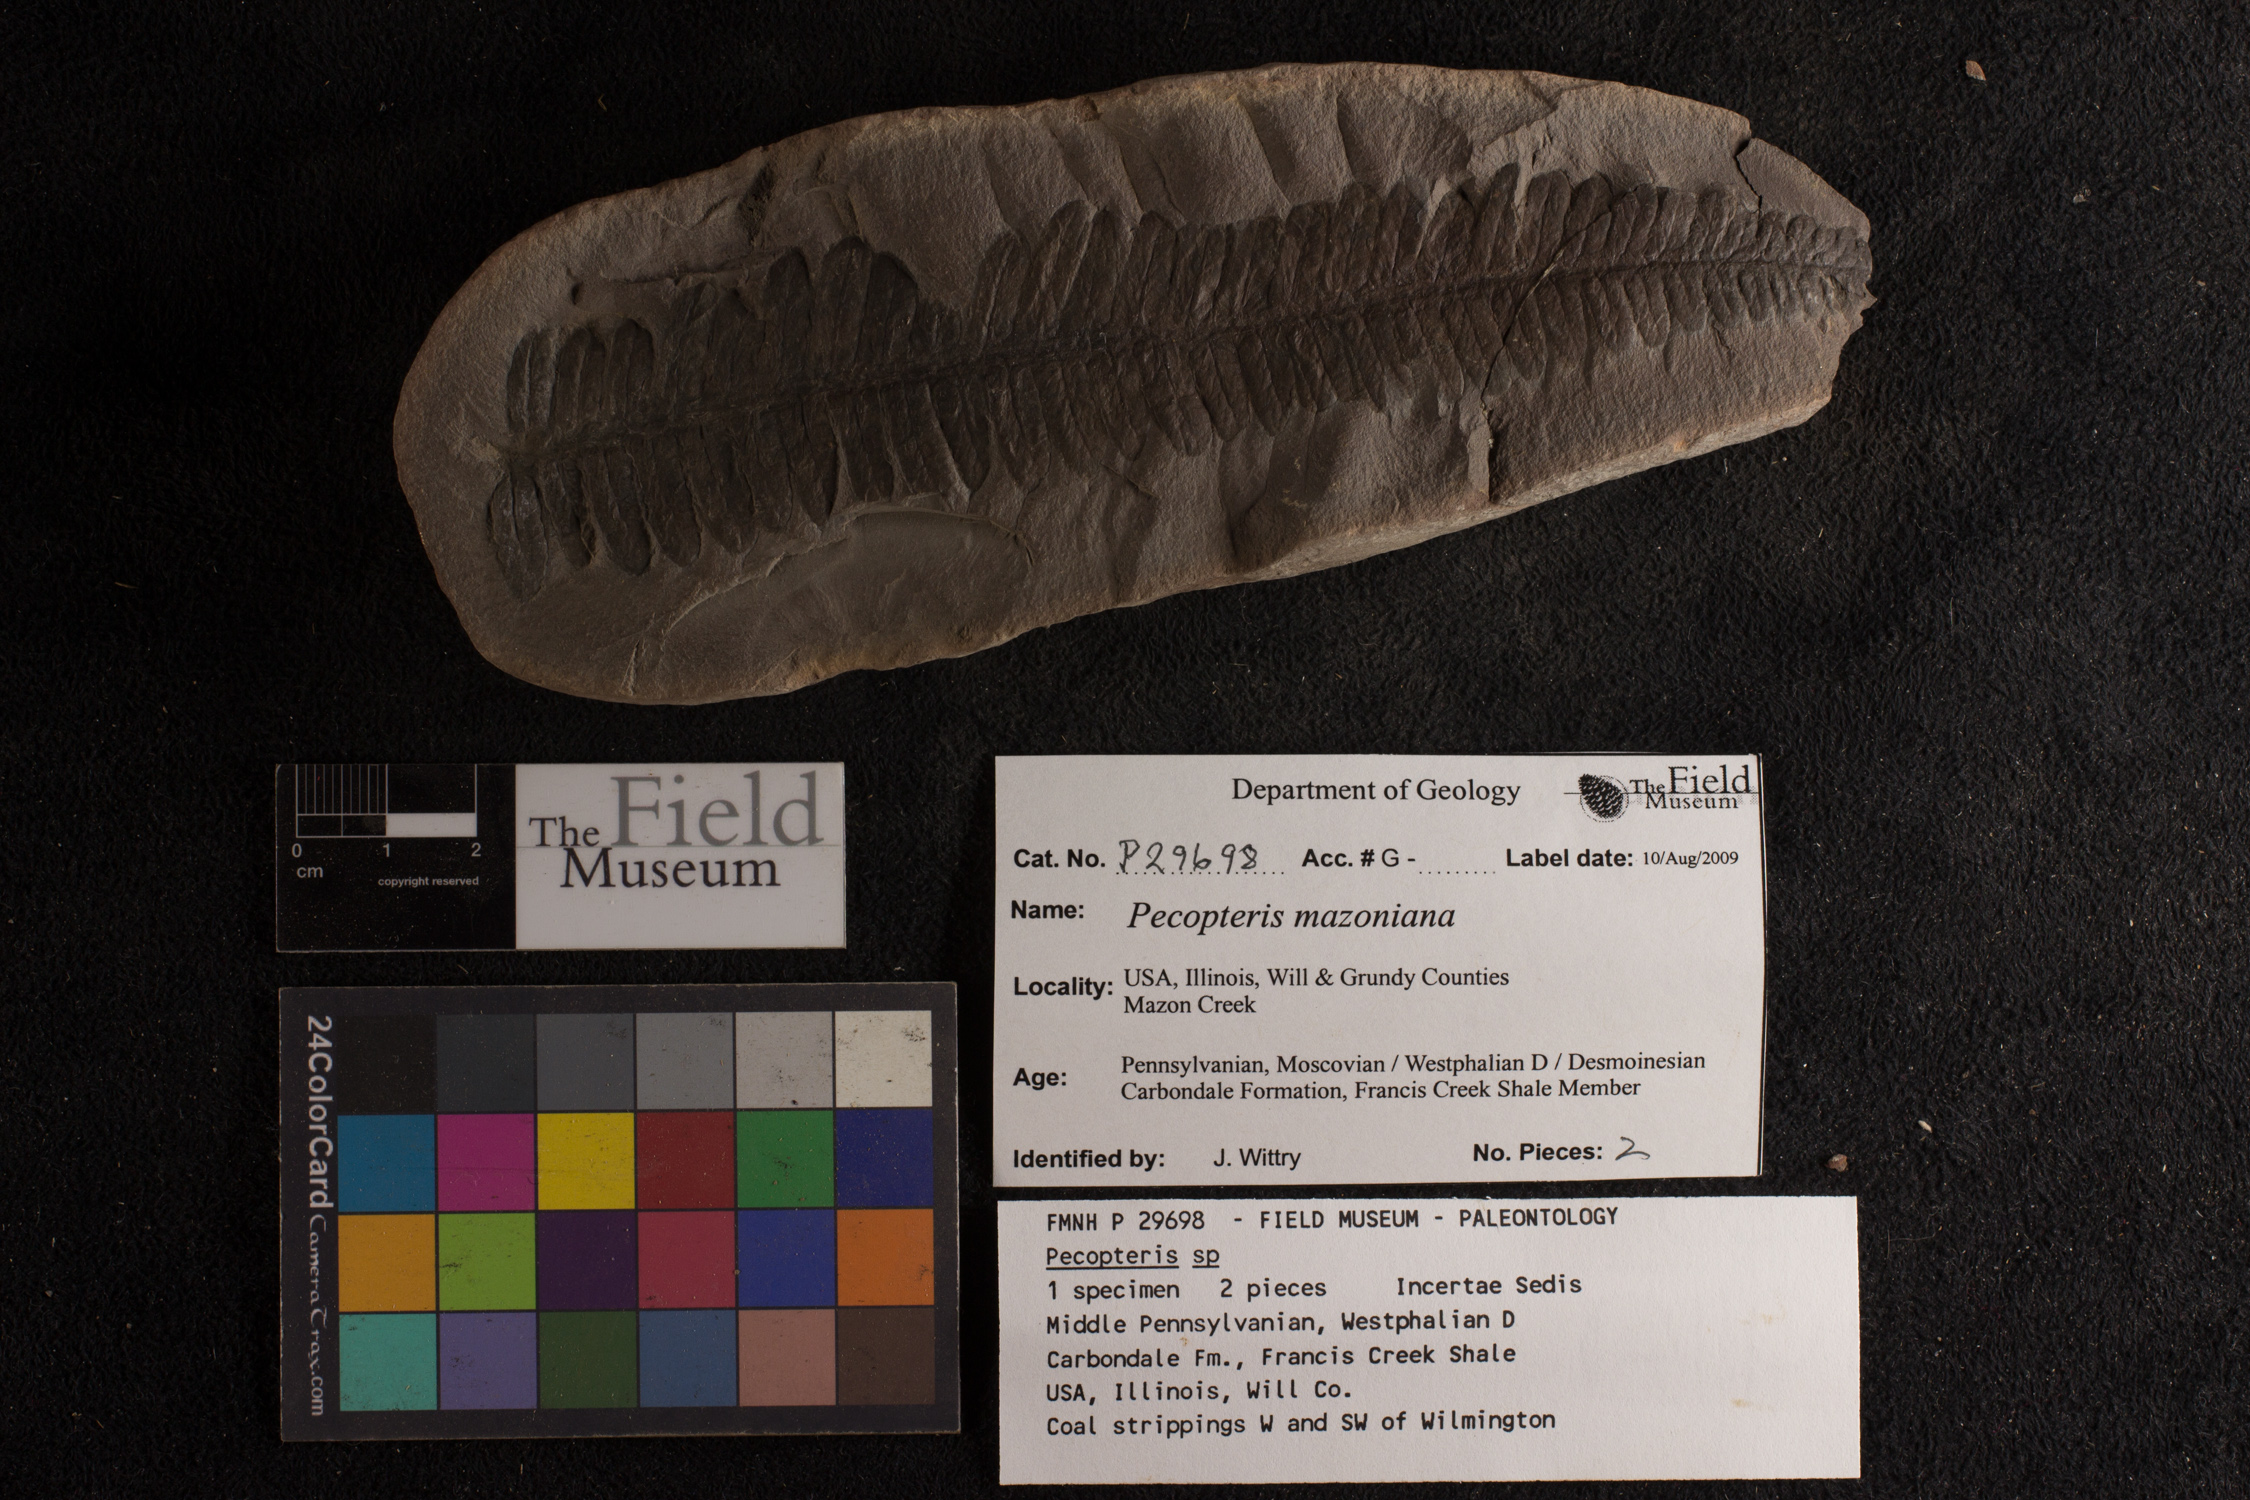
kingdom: Plantae
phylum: Tracheophyta
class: Polypodiopsida
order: Marattiales
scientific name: Marattiales
